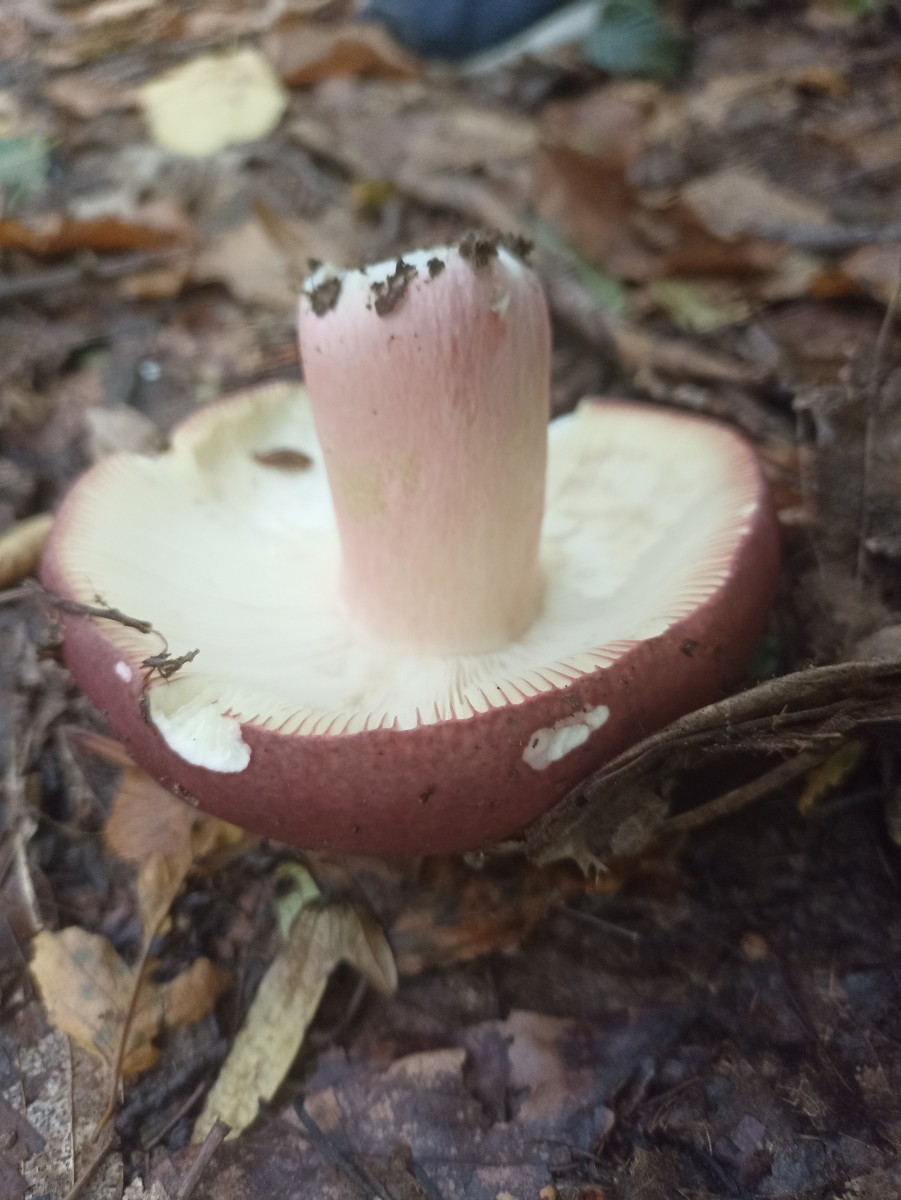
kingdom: Fungi
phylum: Basidiomycota
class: Agaricomycetes
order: Russulales
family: Russulaceae
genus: Russula
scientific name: Russula
